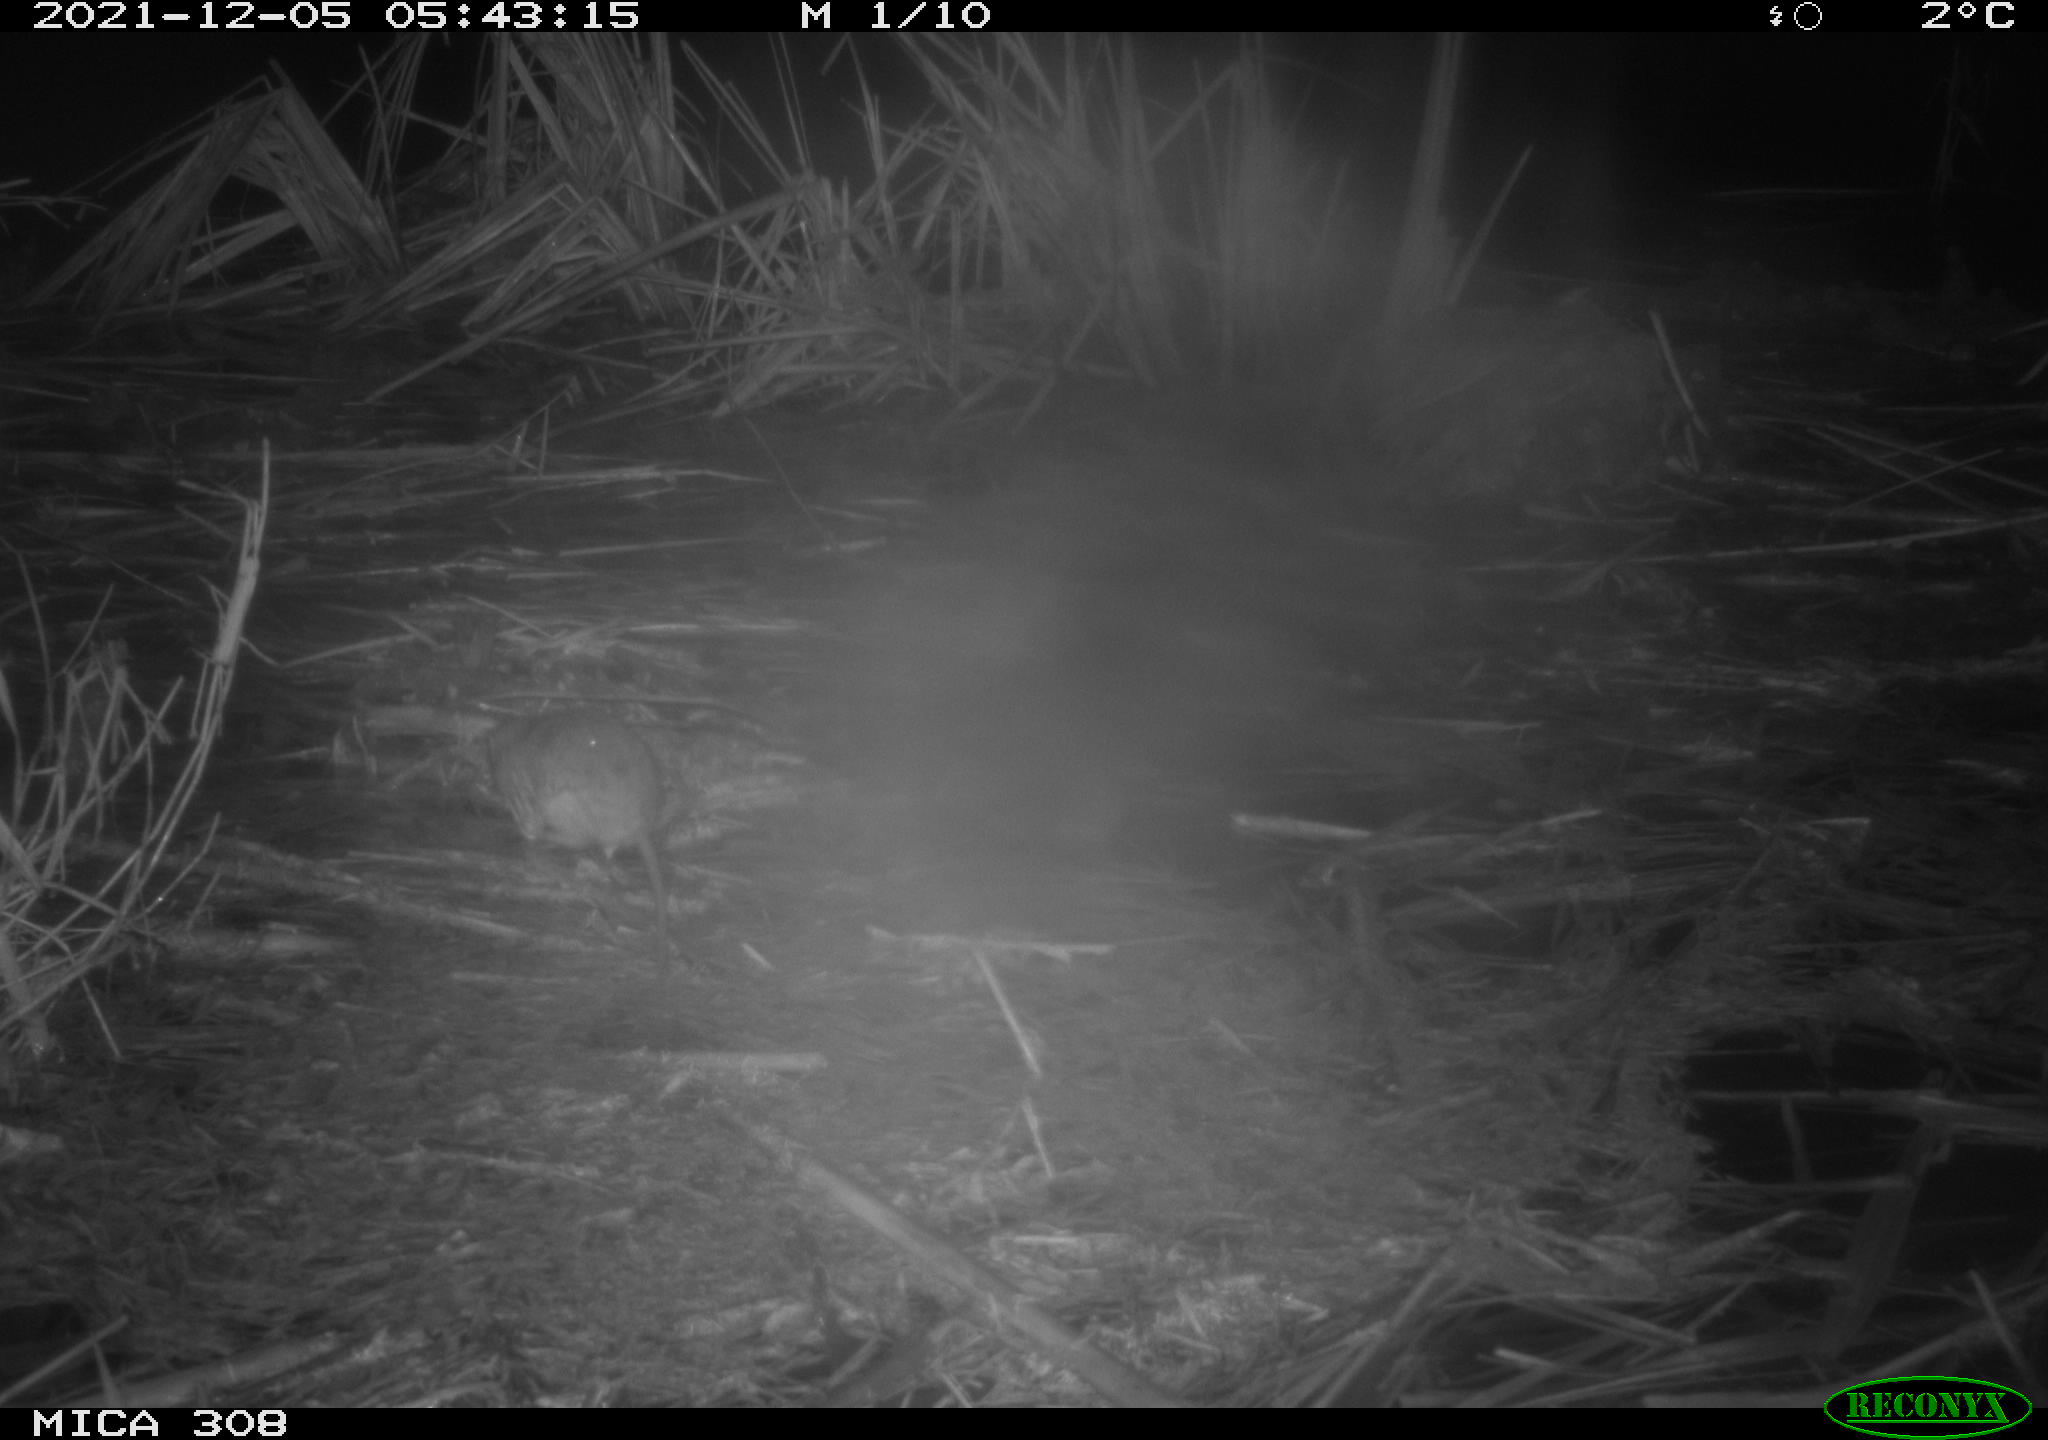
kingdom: Animalia
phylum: Chordata
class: Mammalia
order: Rodentia
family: Muridae
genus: Rattus
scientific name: Rattus norvegicus
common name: Brown rat
